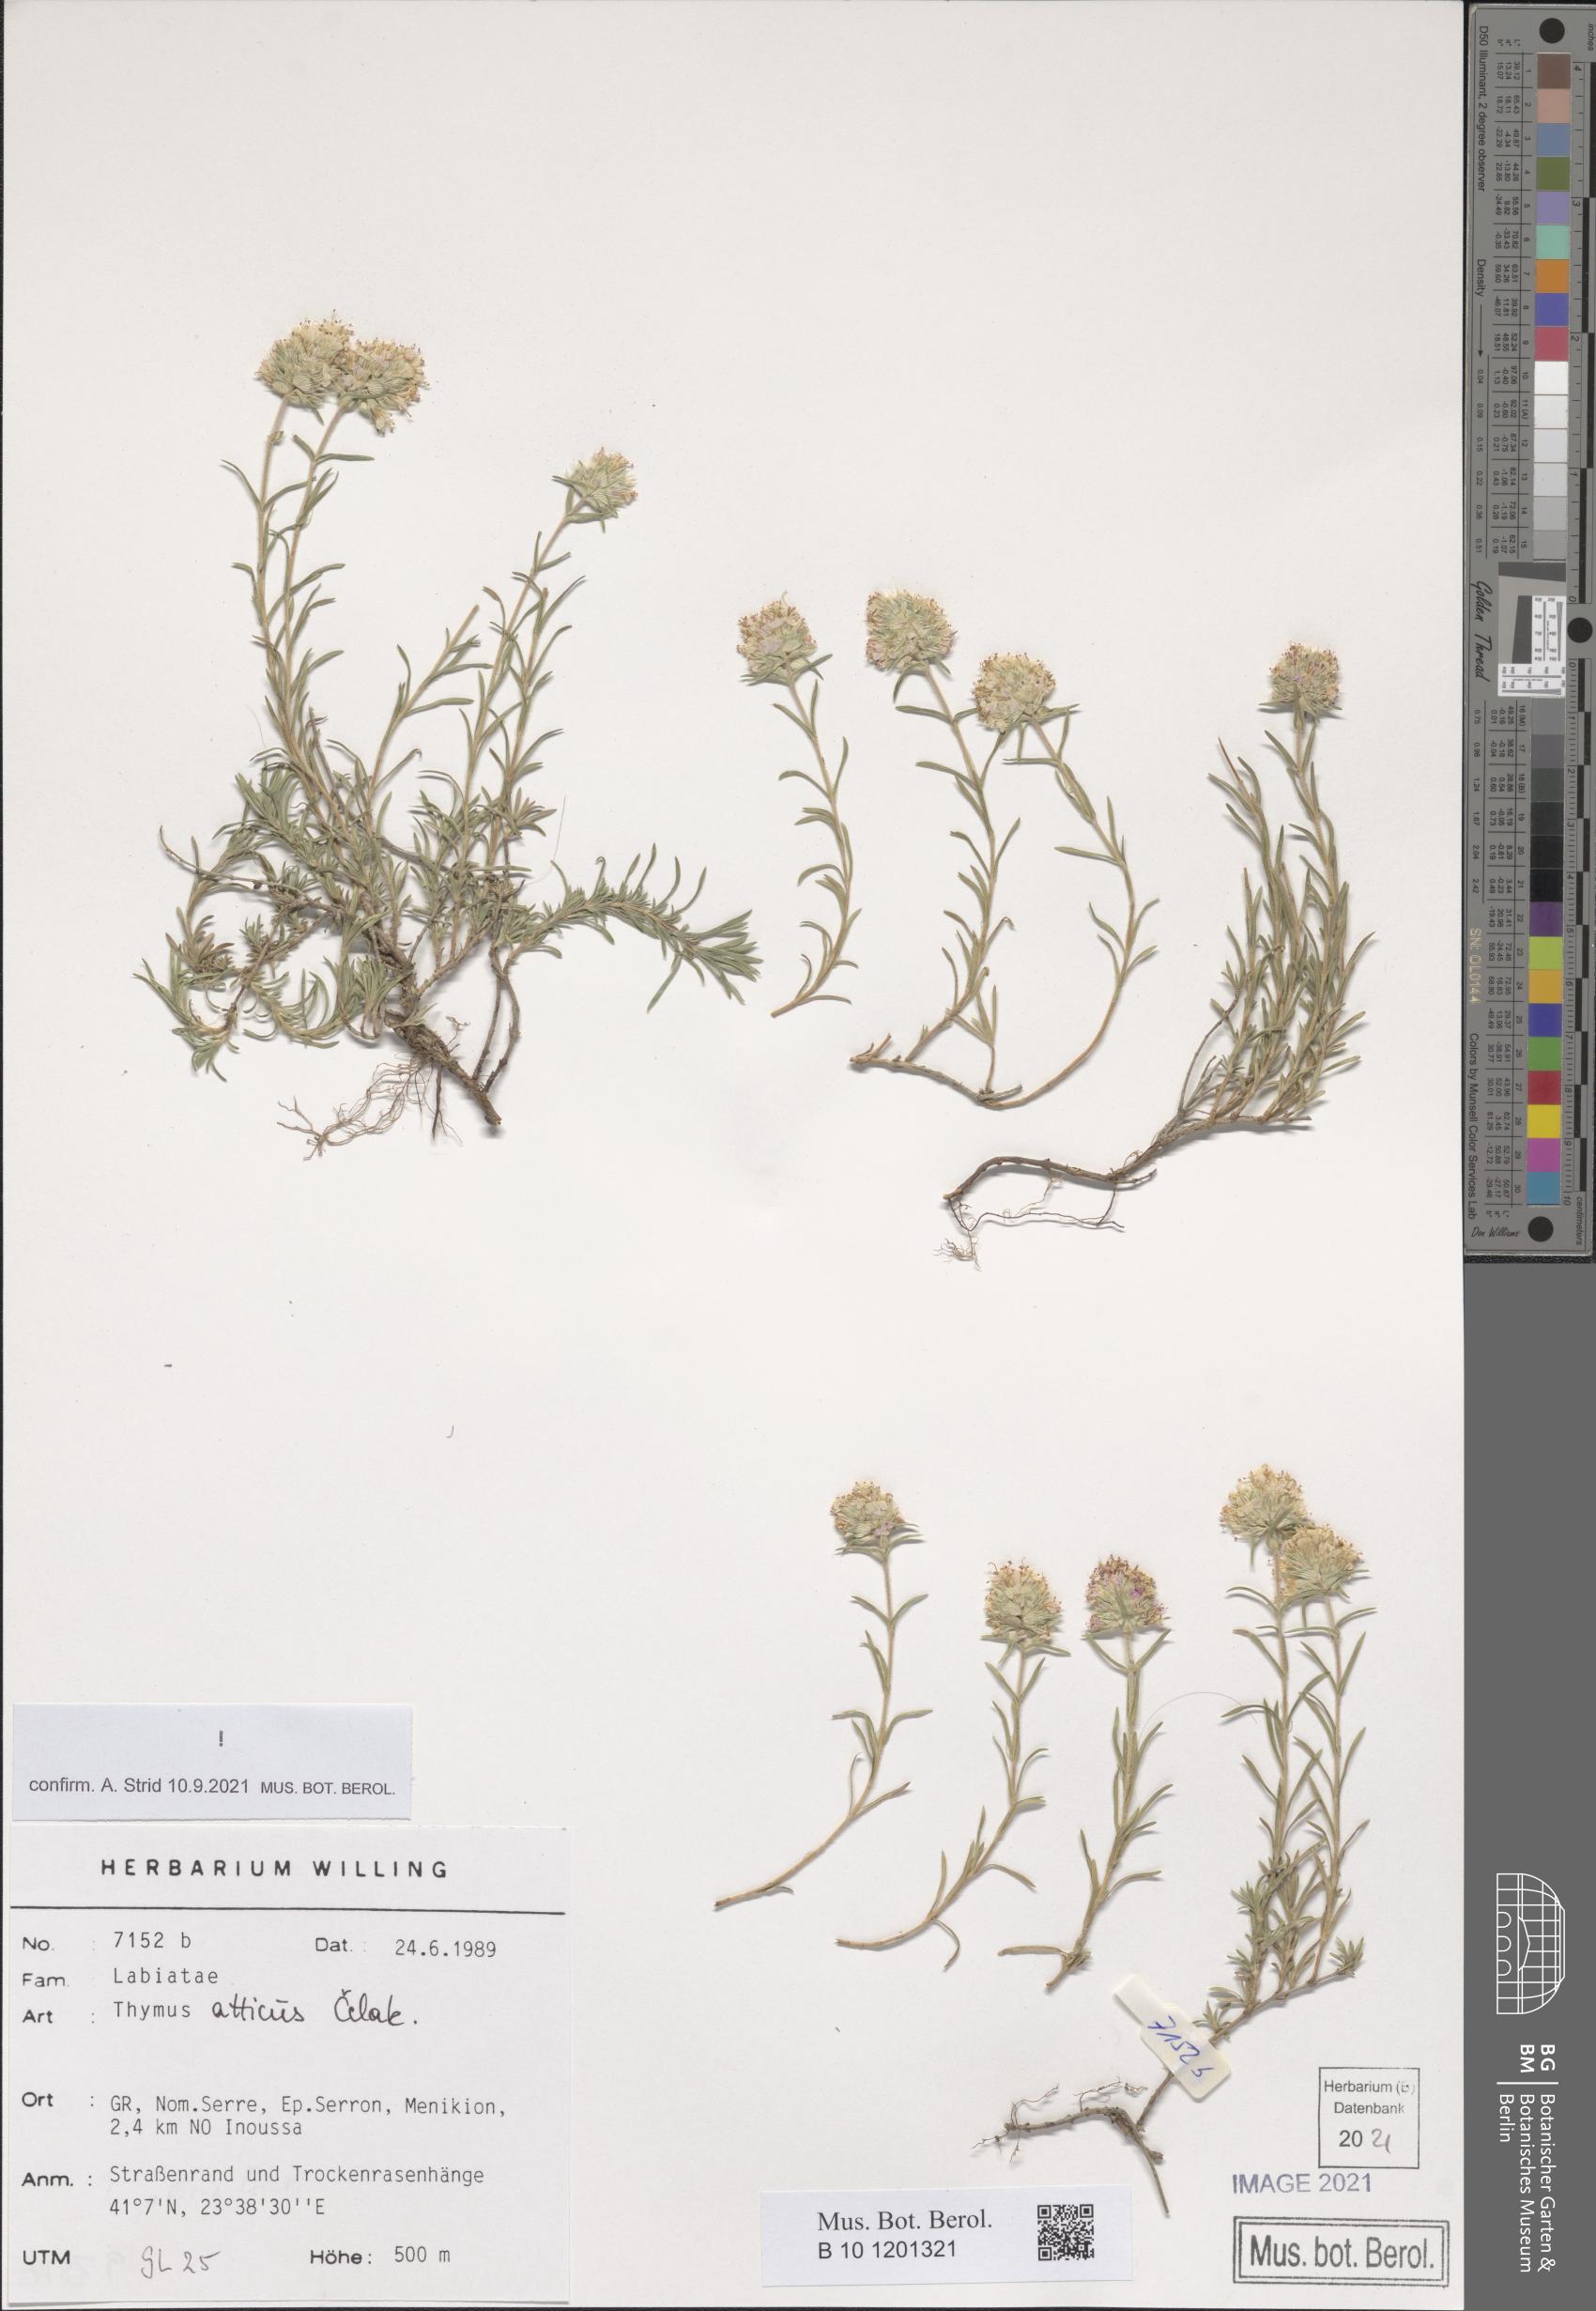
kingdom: Plantae
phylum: Tracheophyta
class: Magnoliopsida
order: Lamiales
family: Lamiaceae
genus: Thymus
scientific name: Thymus atticus
